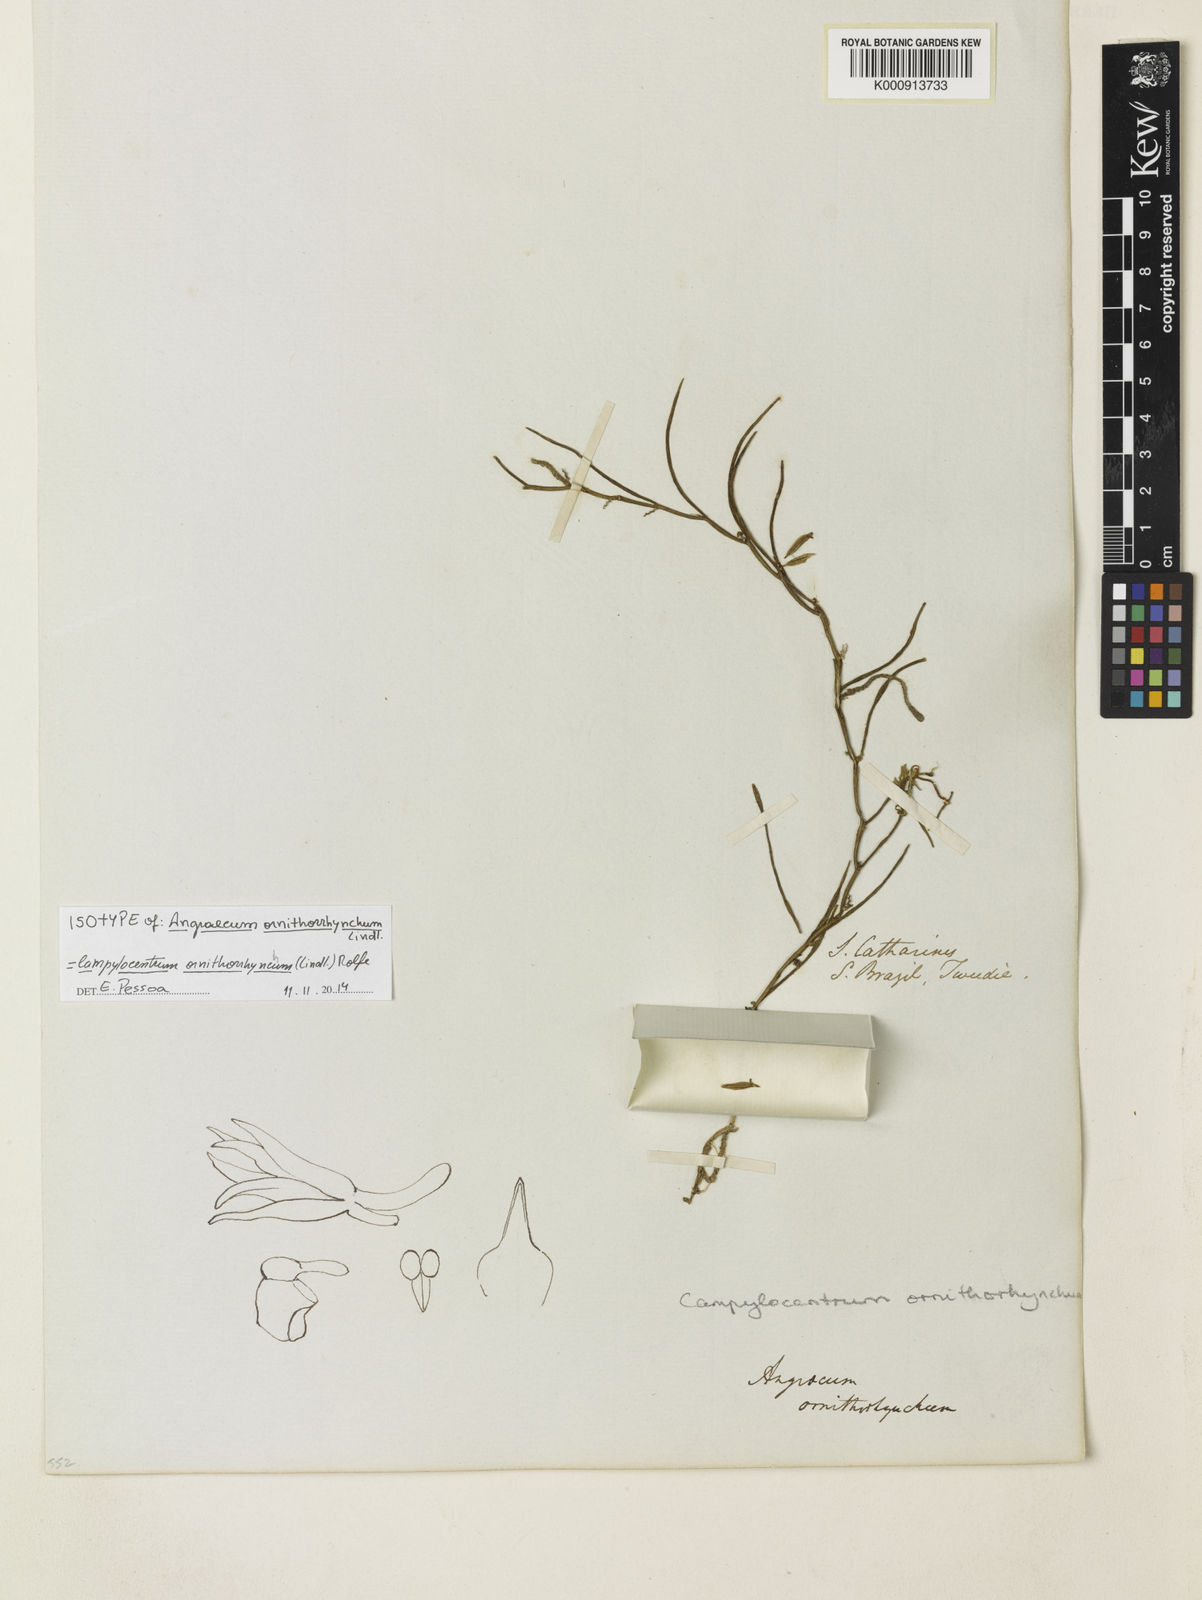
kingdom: Plantae
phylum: Tracheophyta
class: Liliopsida
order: Asparagales
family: Orchidaceae
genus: Campylocentrum
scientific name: Campylocentrum ornithorrhynchum
